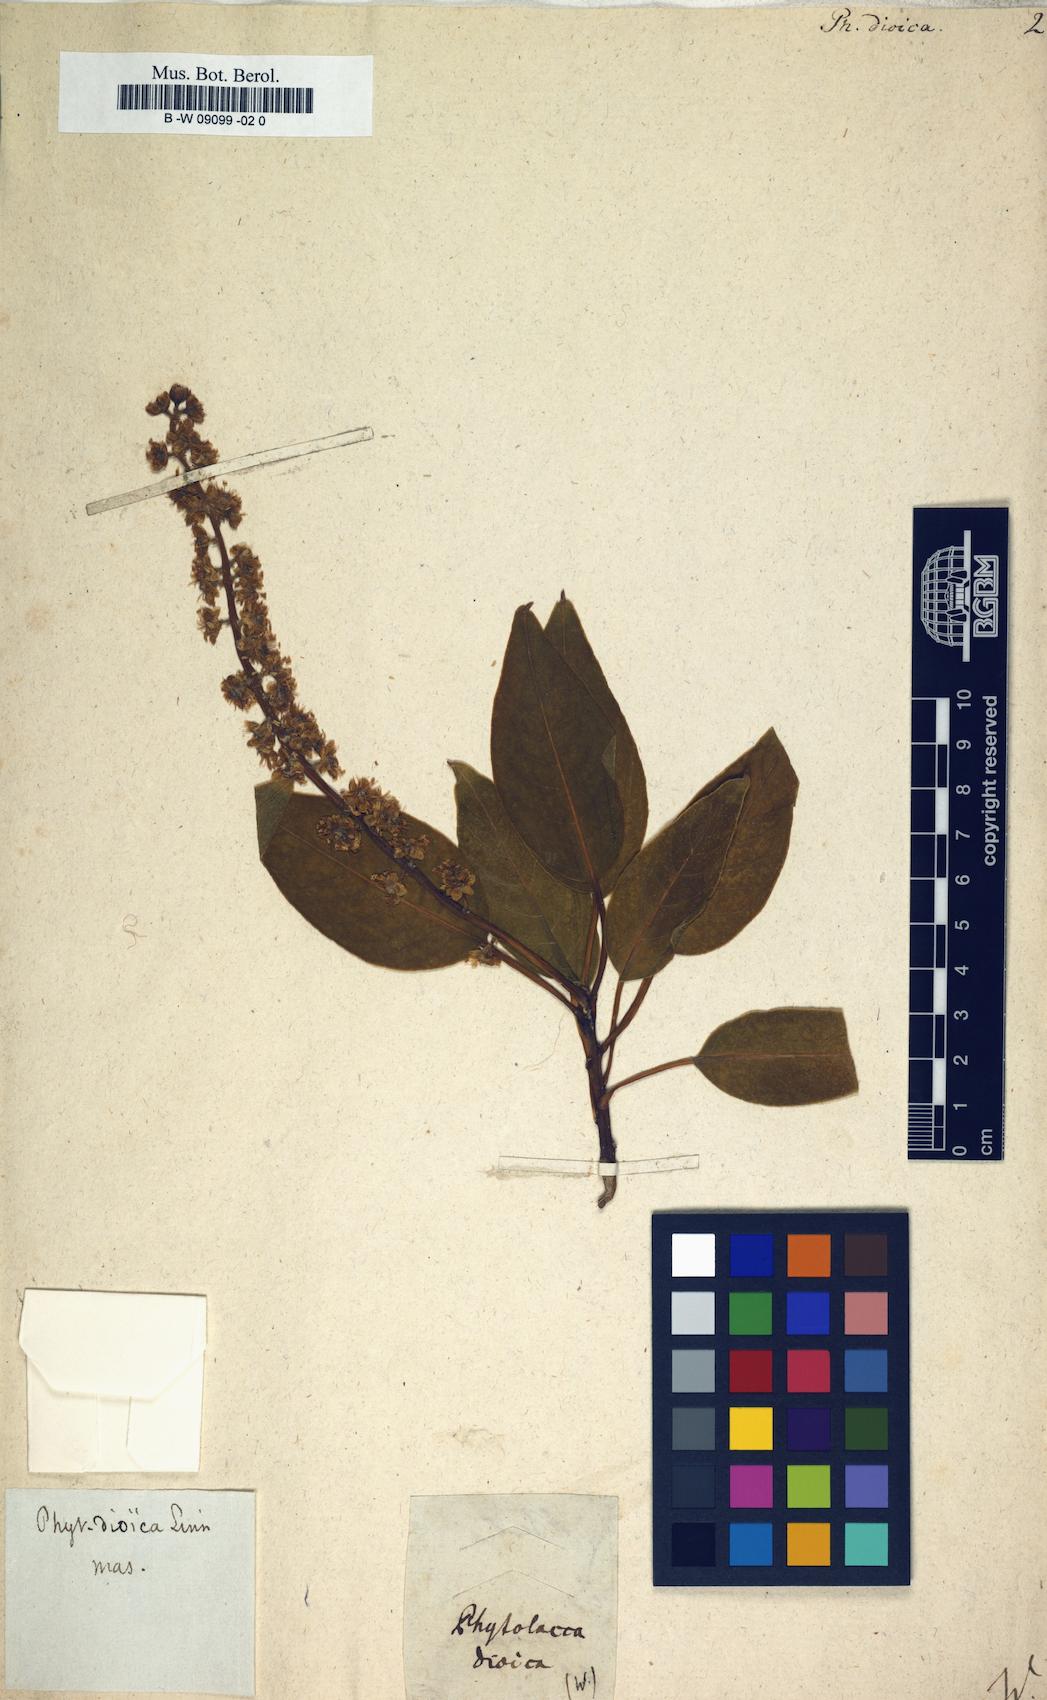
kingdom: Plantae
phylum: Tracheophyta
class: Magnoliopsida
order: Caryophyllales
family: Phytolaccaceae
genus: Phytolacca
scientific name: Phytolacca dioica
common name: Pokeweed
